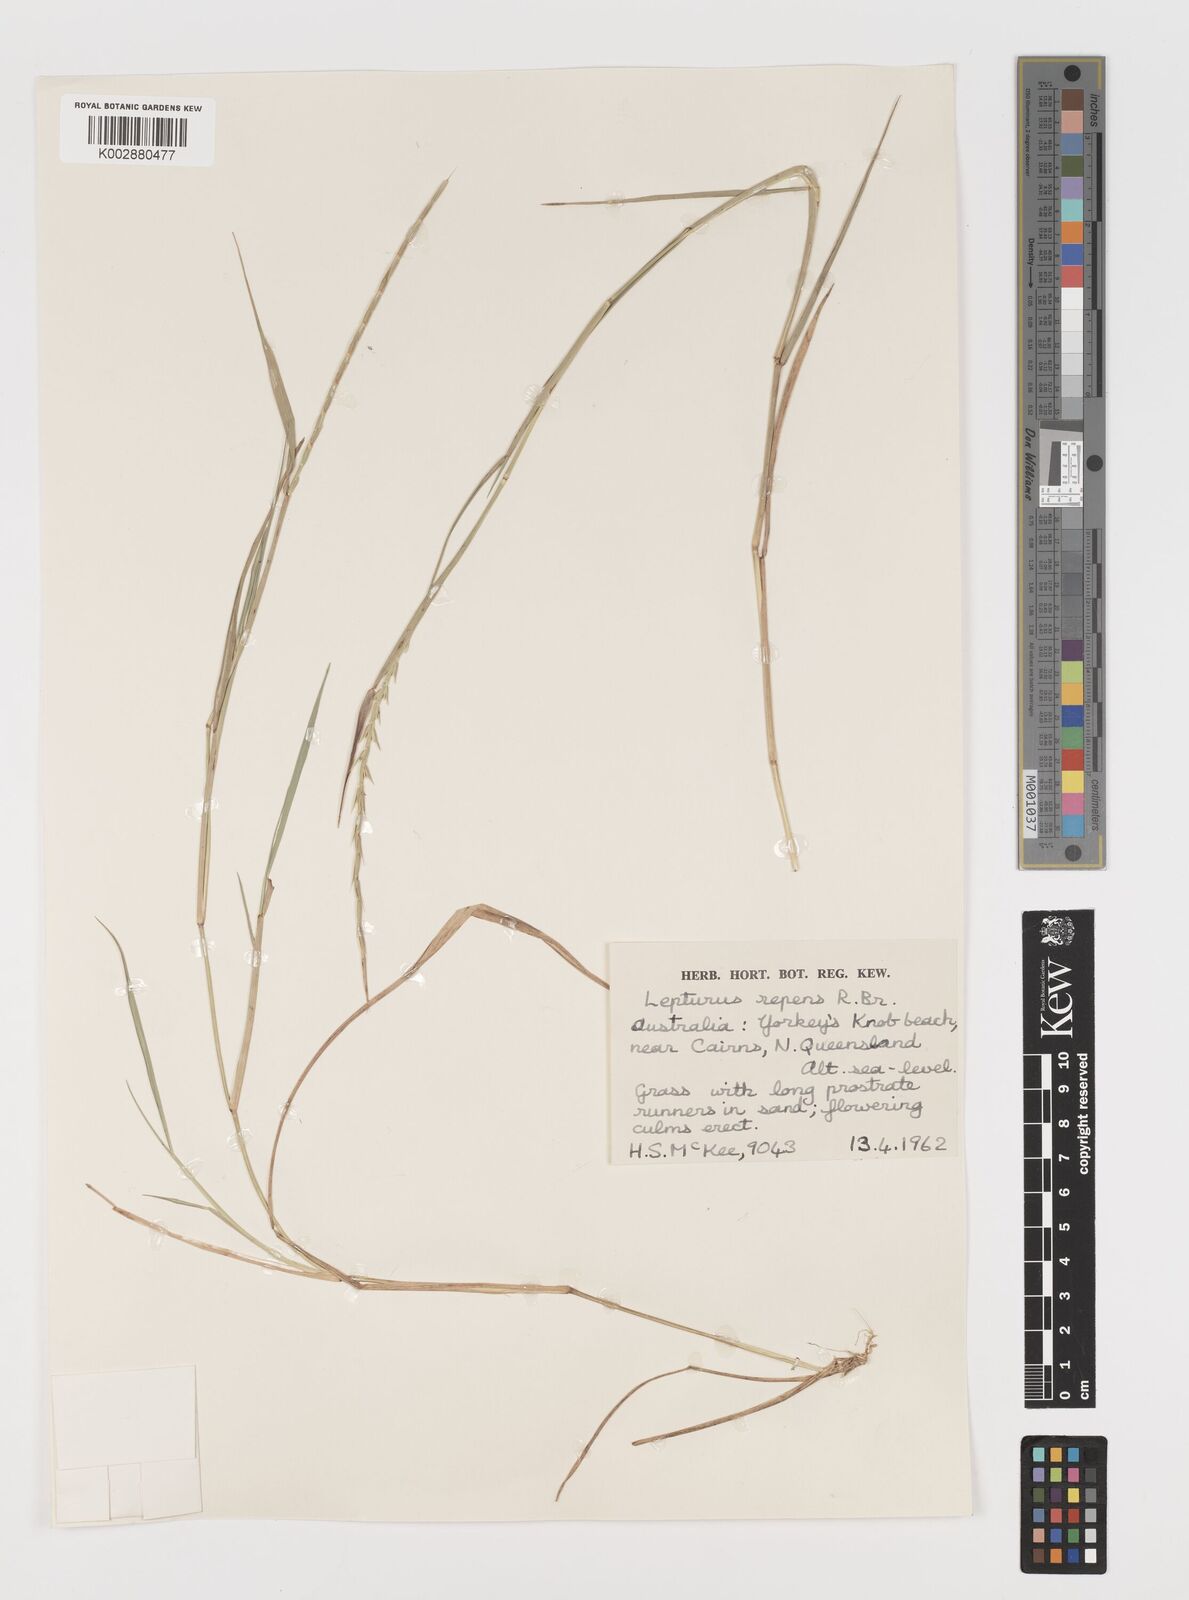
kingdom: Plantae
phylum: Tracheophyta
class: Liliopsida
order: Poales
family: Poaceae
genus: Lepturus
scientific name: Lepturus repens
